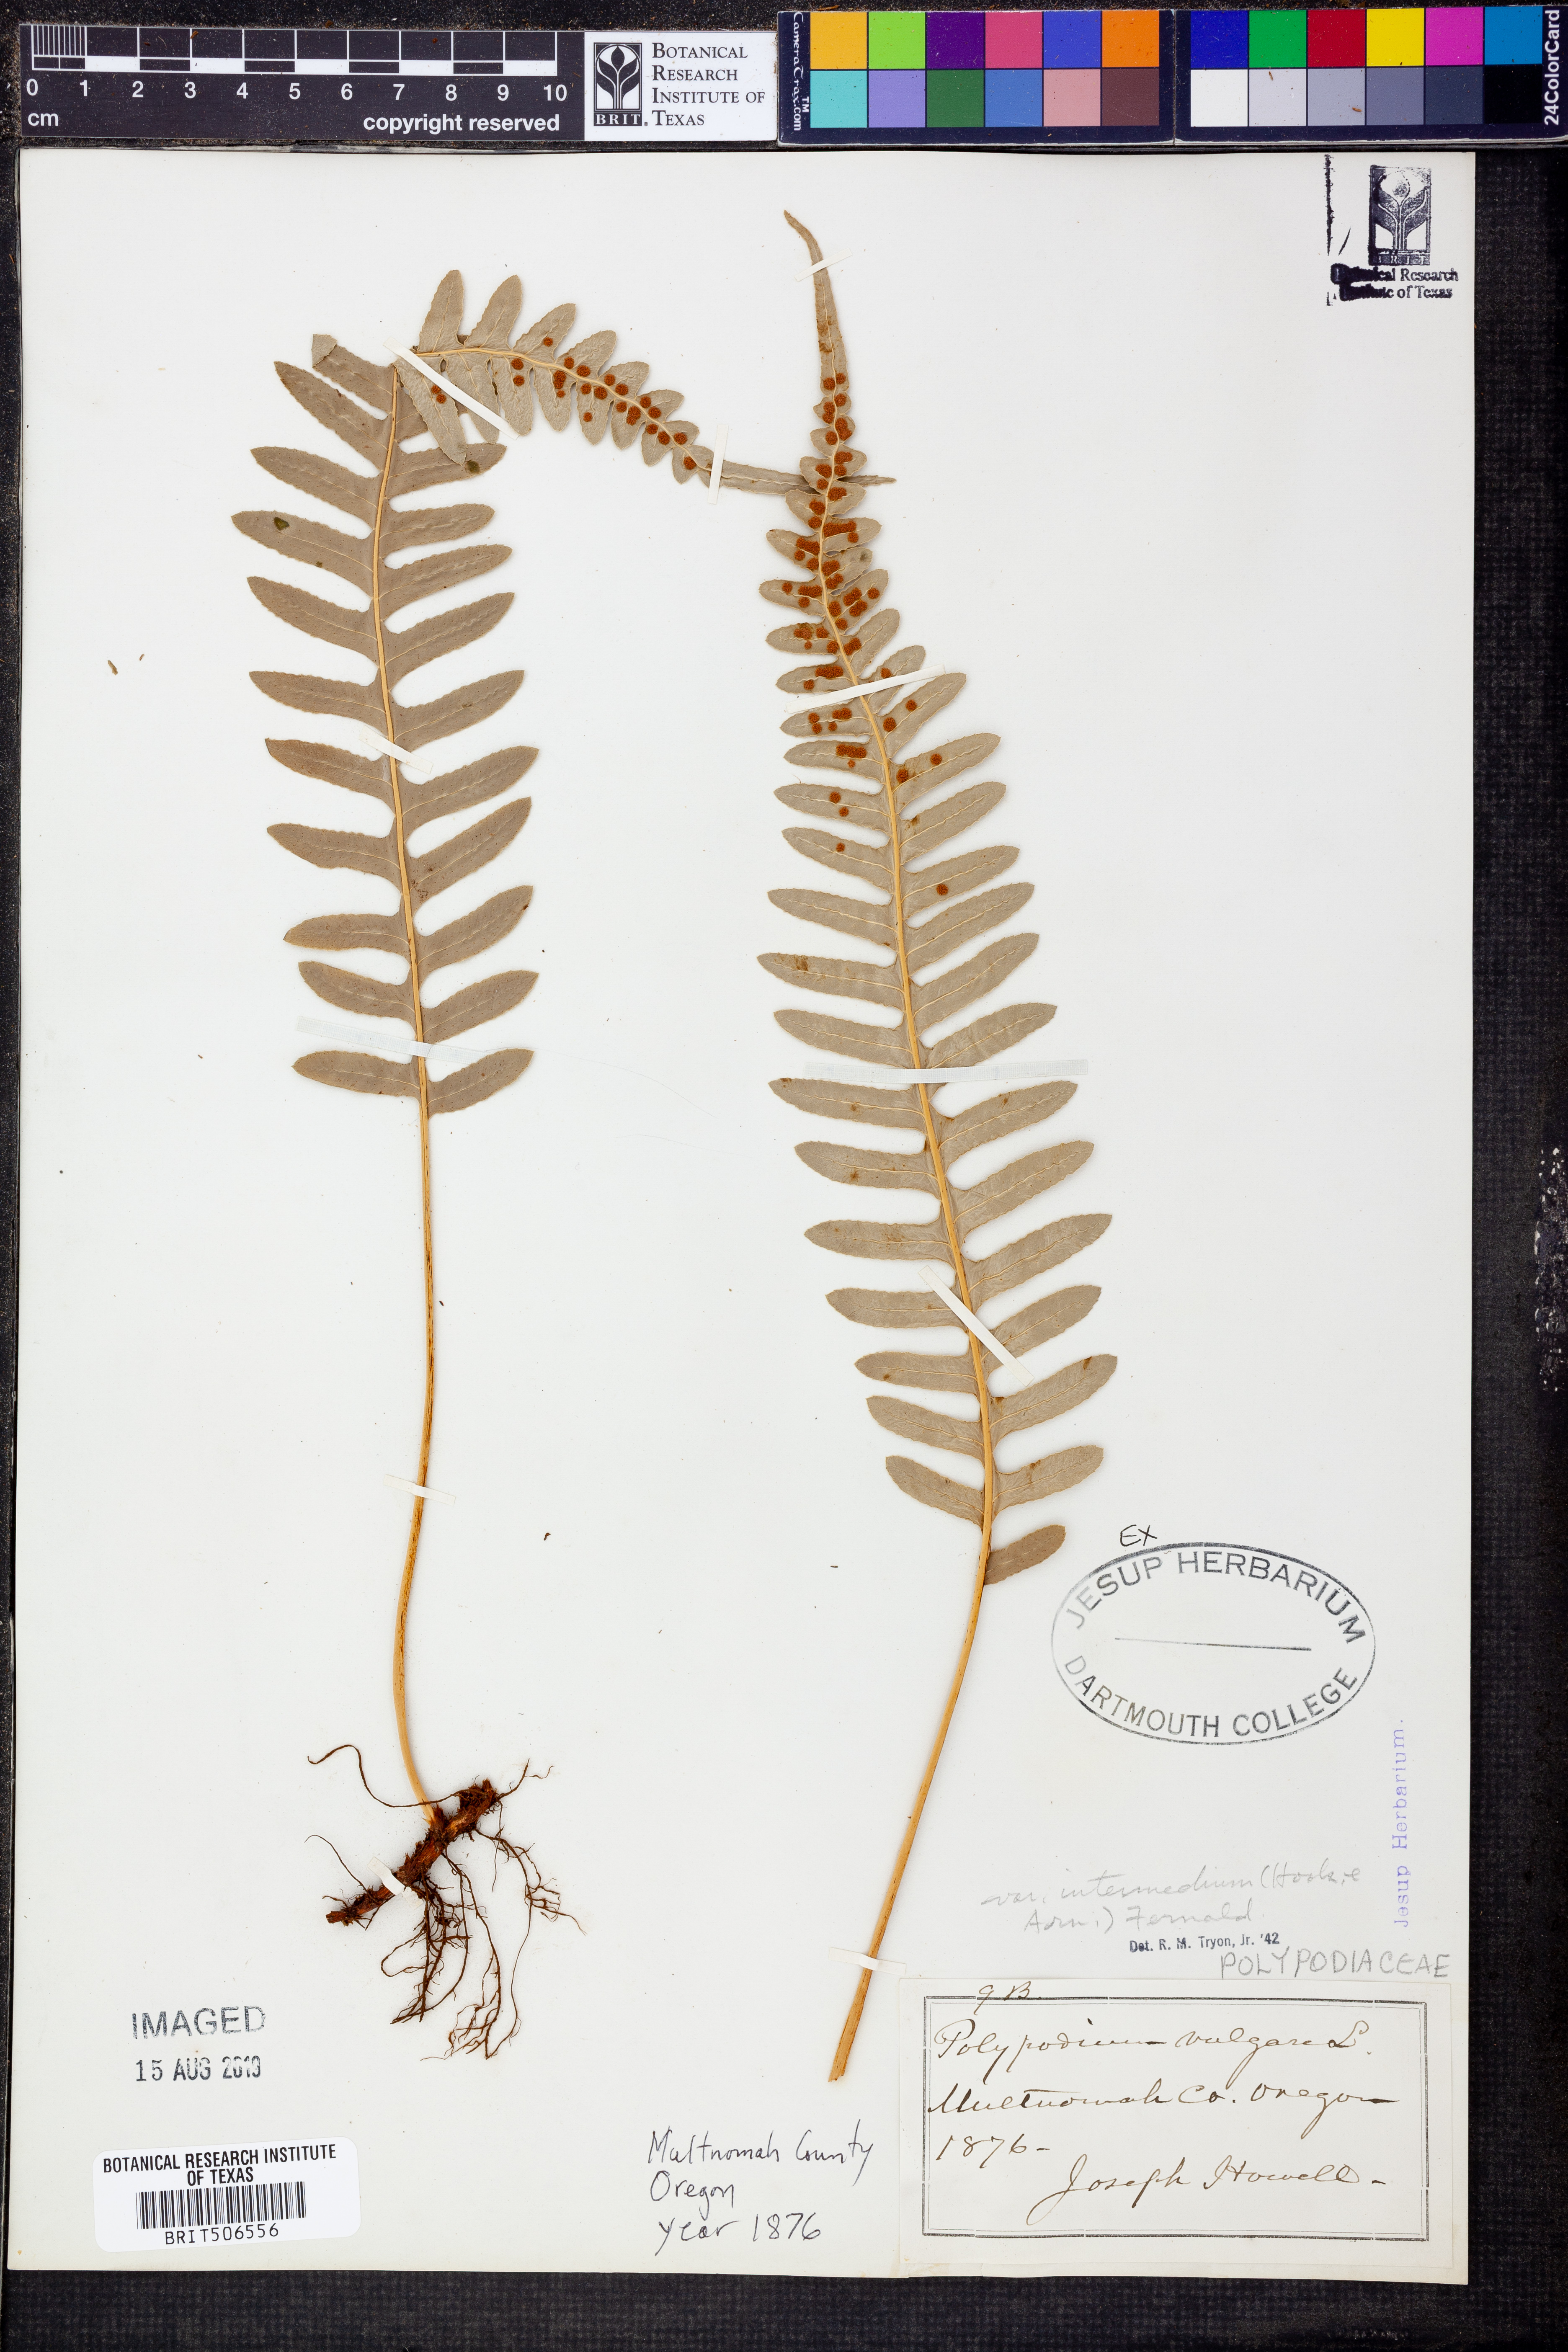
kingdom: Plantae
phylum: Tracheophyta
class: Polypodiopsida
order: Polypodiales
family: Polypodiaceae
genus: Polypodium
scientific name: Polypodium calirhiza
